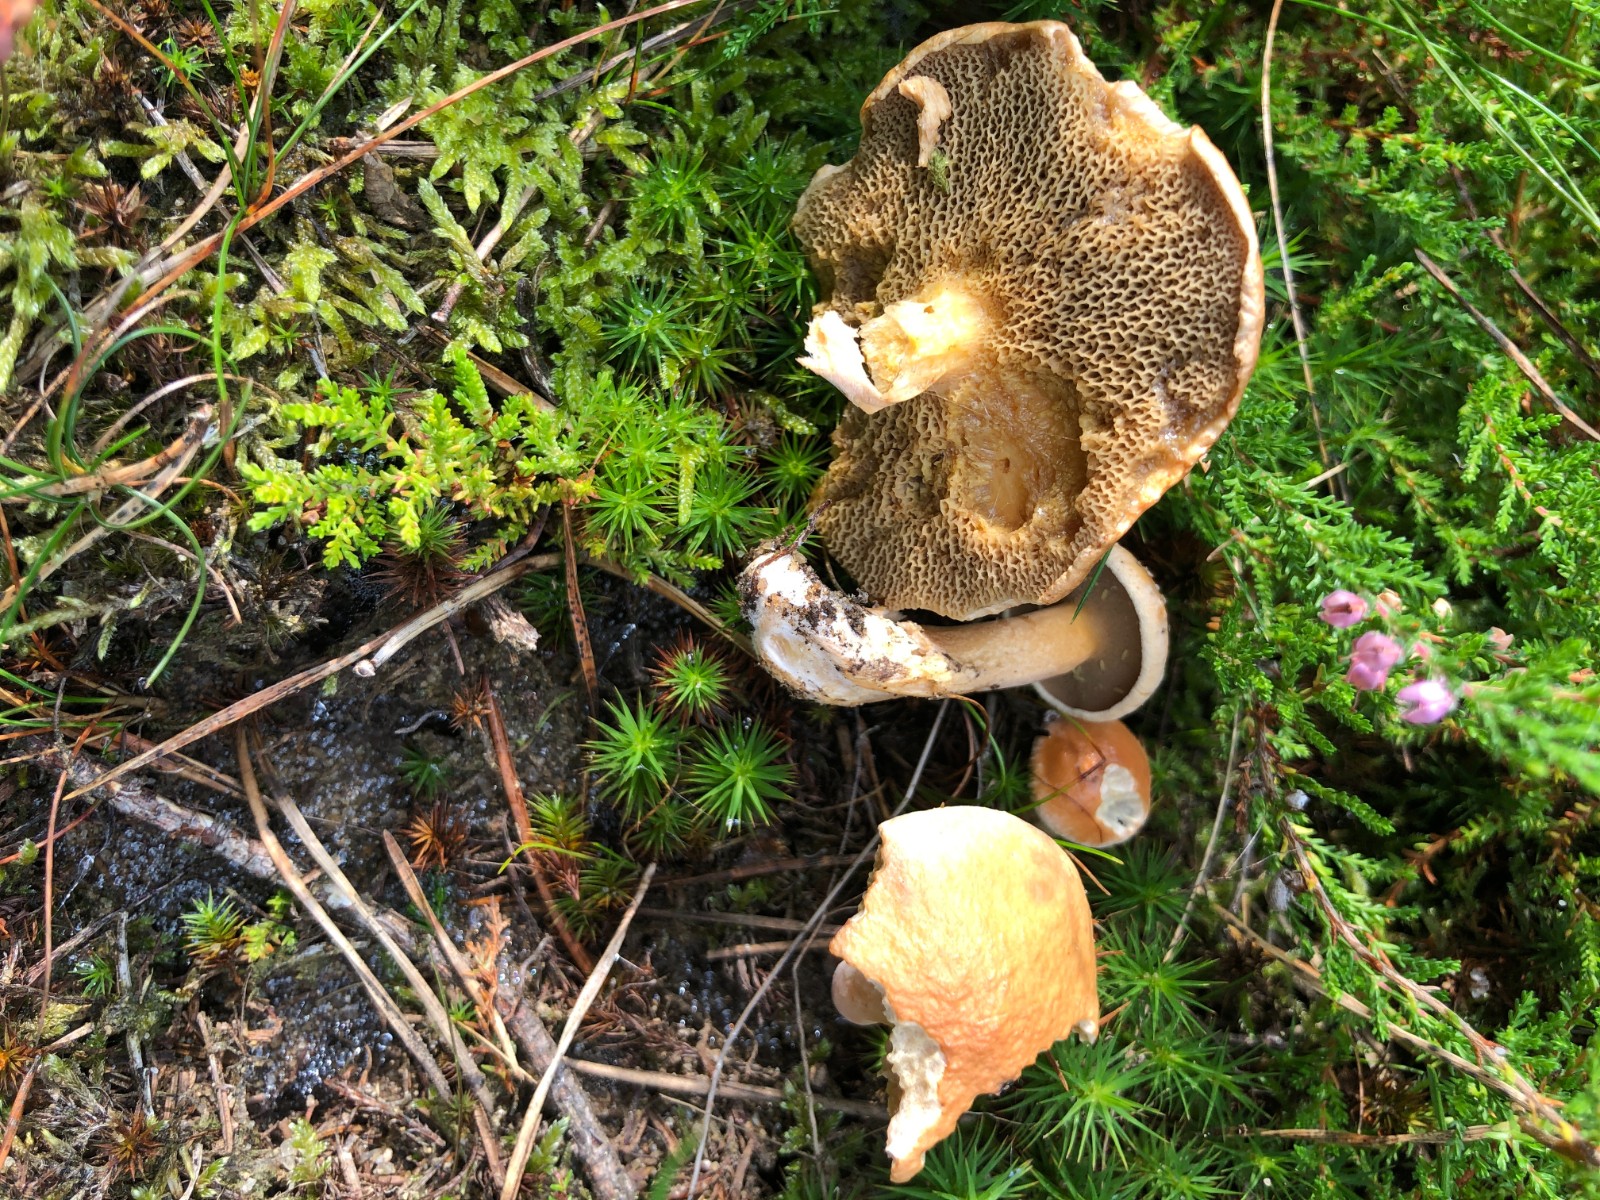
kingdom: Fungi
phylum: Basidiomycota
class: Agaricomycetes
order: Boletales
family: Suillaceae
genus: Suillus
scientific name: Suillus bovinus
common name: grovporet slimrørhat
